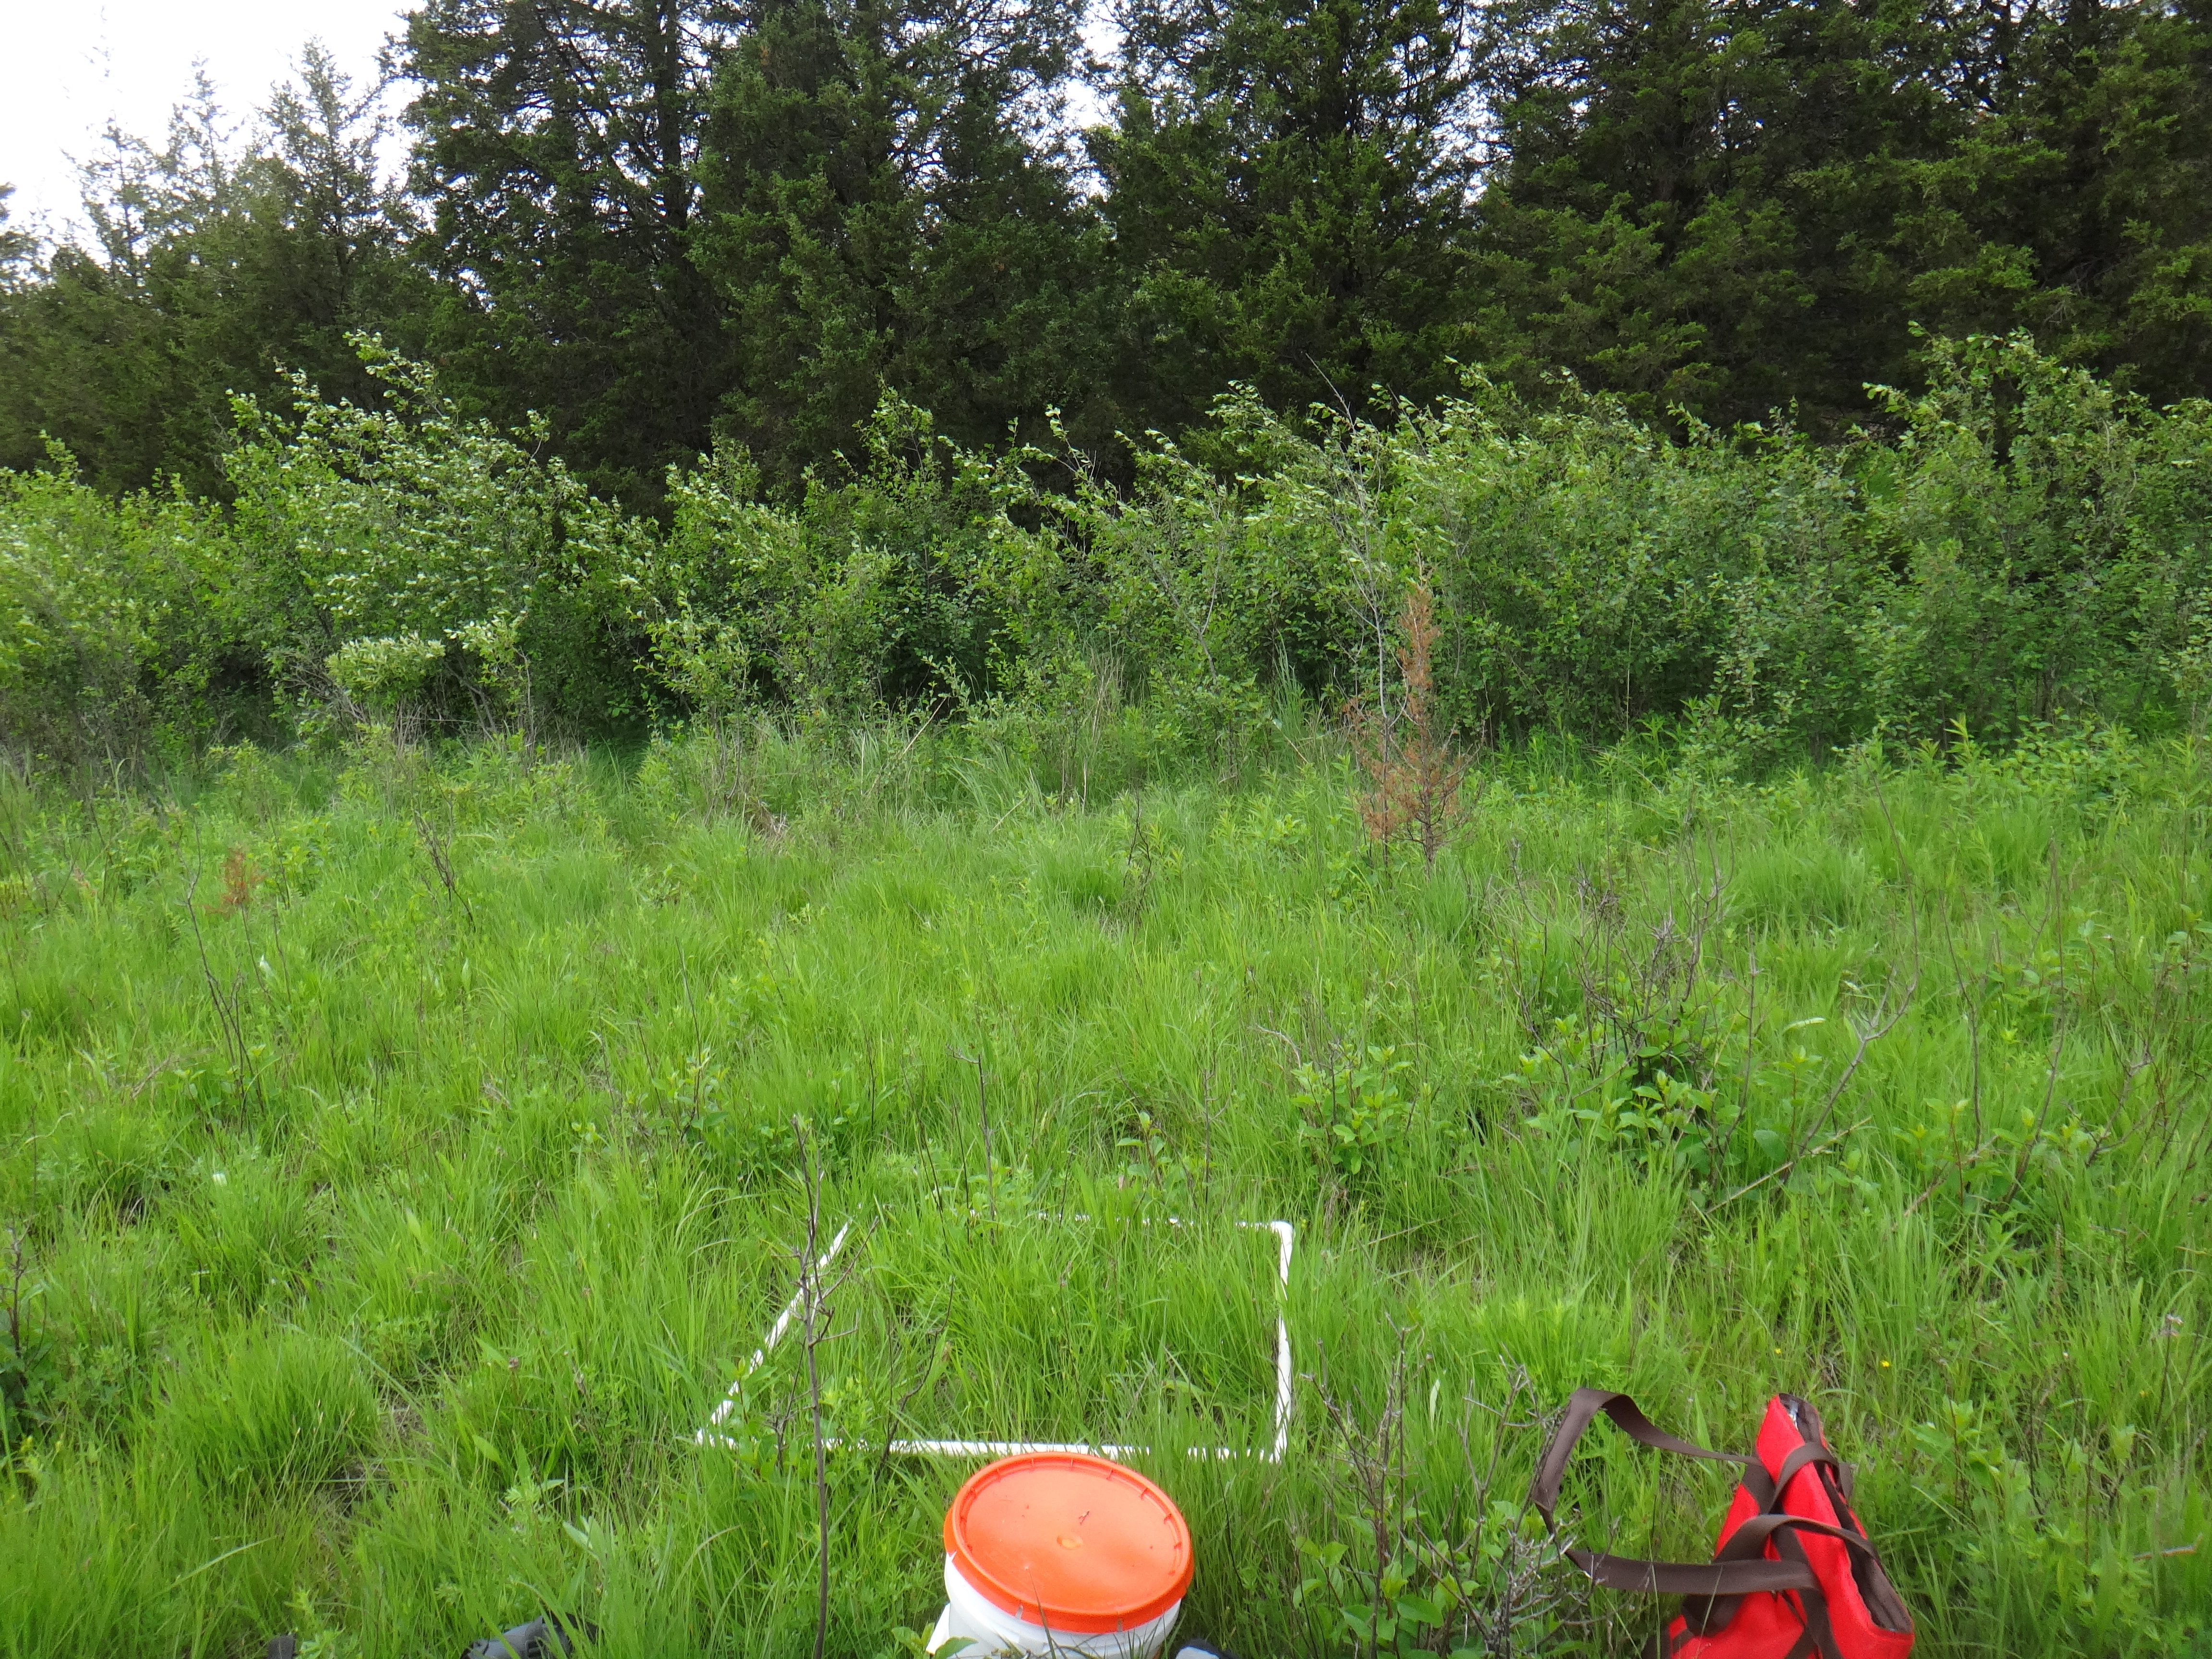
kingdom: Plantae
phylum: Tracheophyta
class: Liliopsida
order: Poales
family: Poaceae
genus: Phalaris
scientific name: Phalaris arundinacea
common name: Reed canary-grass
